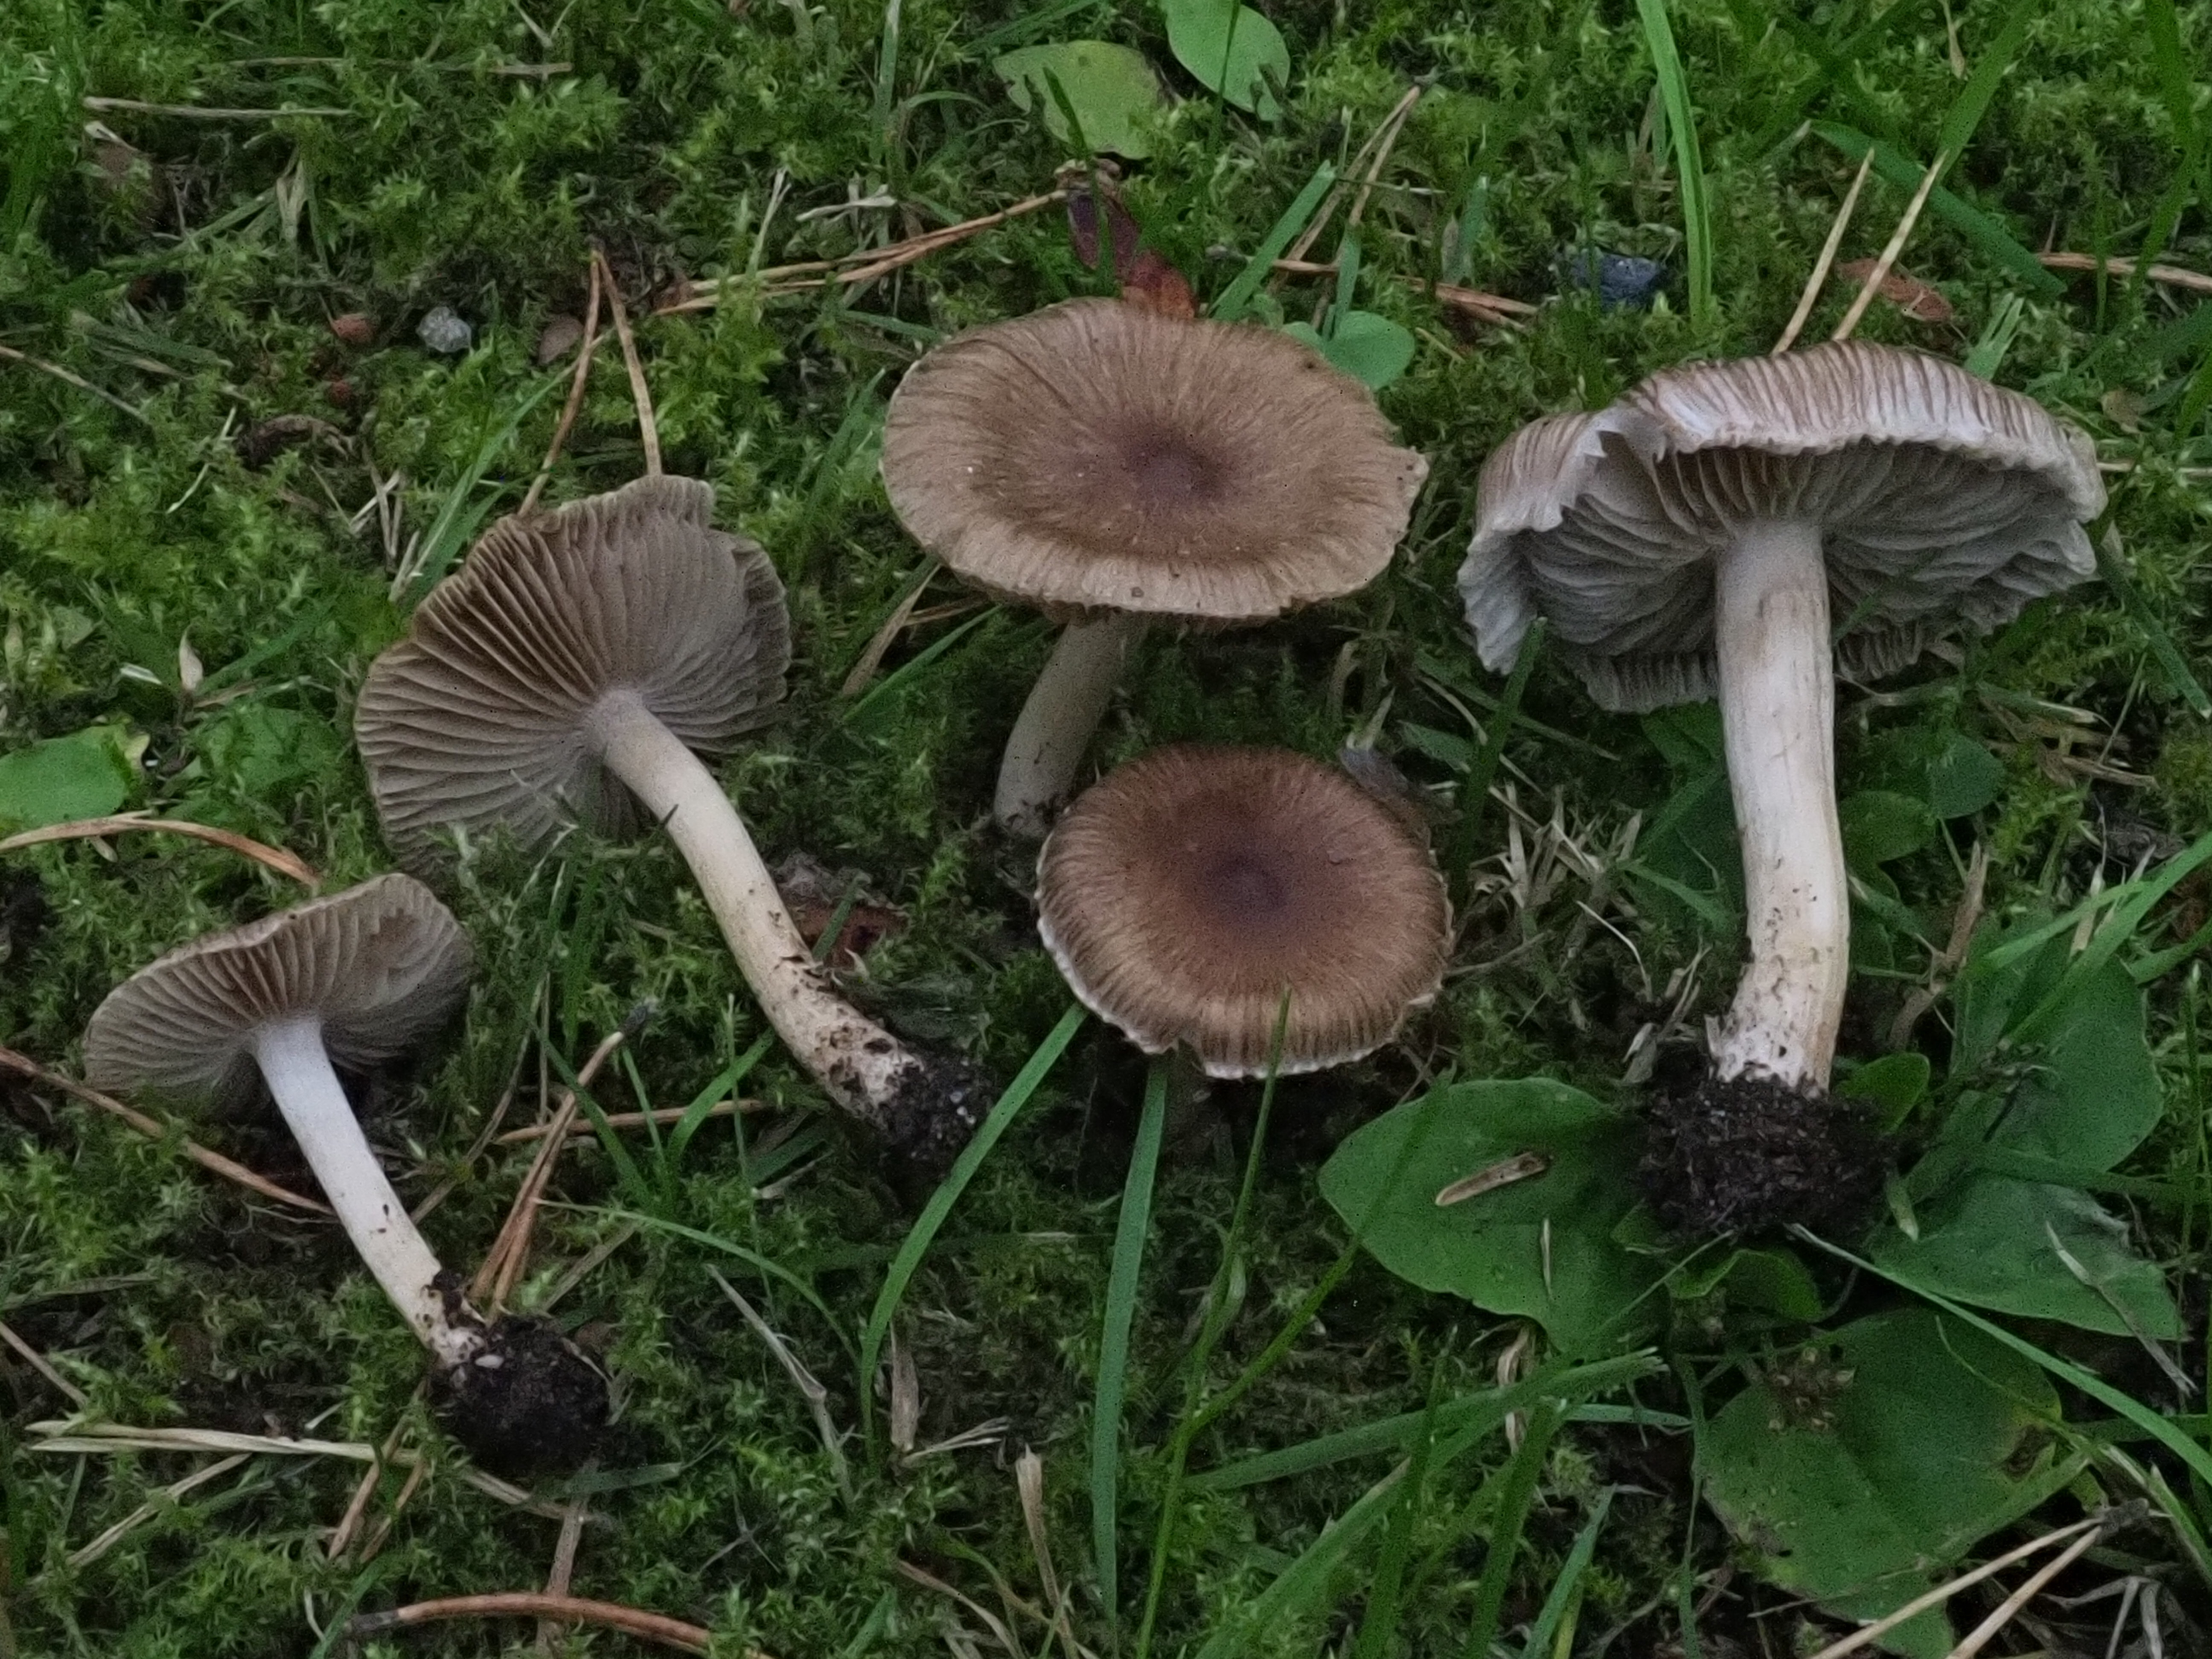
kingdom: Fungi
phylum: Basidiomycota
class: Agaricomycetes
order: Agaricales
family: Inocybaceae
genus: Inocybe
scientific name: Inocybe
